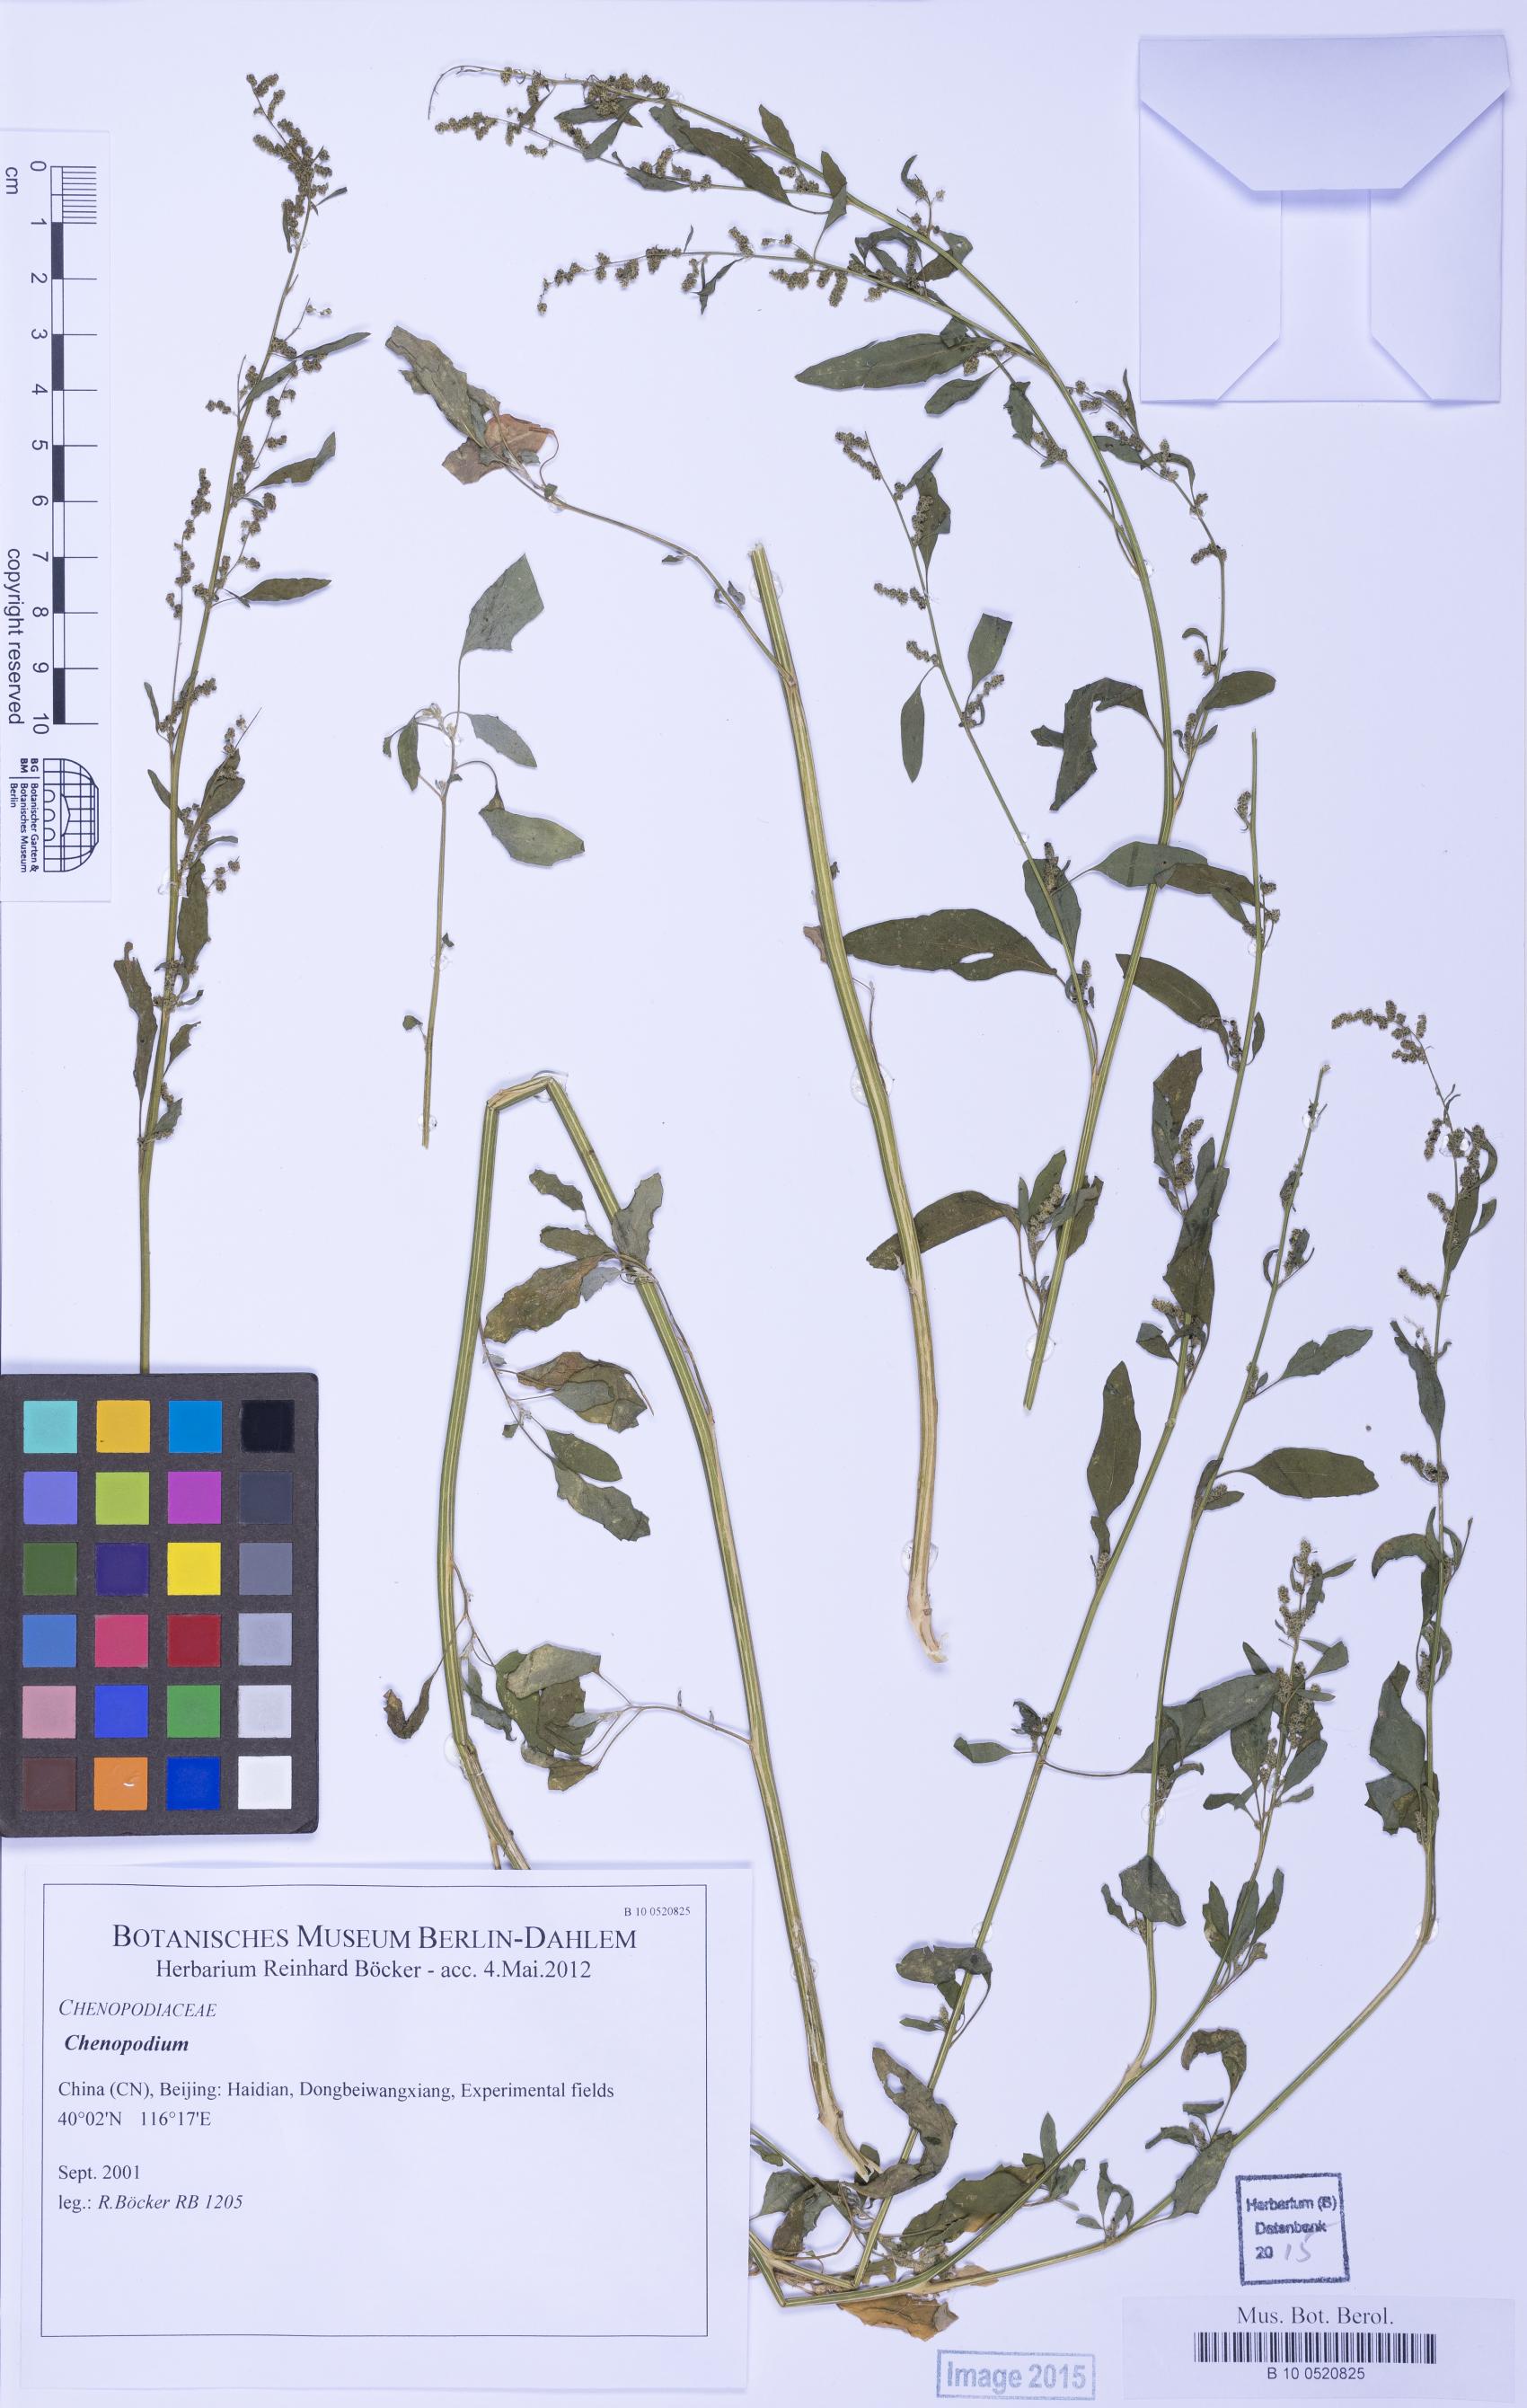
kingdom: Plantae
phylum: Tracheophyta
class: Magnoliopsida
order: Caryophyllales
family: Amaranthaceae
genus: Chenopodium
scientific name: Chenopodium
